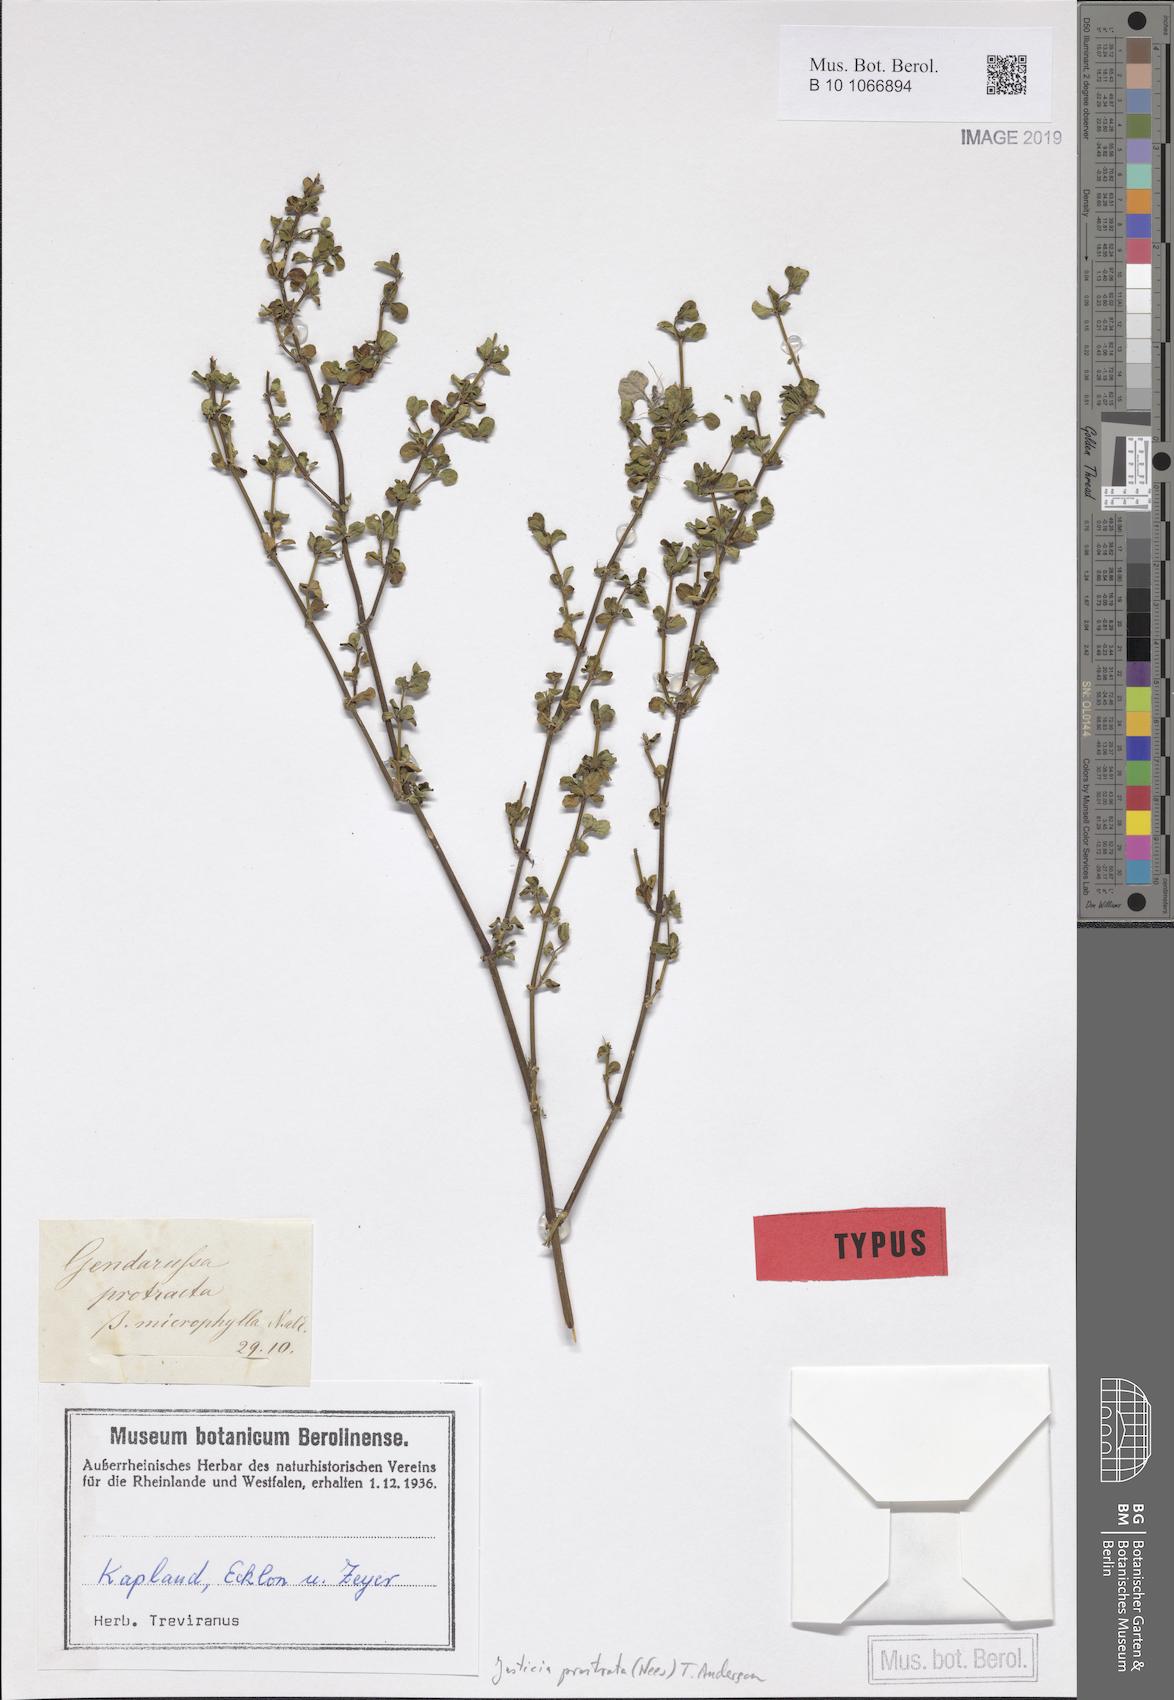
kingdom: Plantae
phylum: Tracheophyta
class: Magnoliopsida
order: Lamiales
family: Acanthaceae
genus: Justicia
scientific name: Justicia protracta
